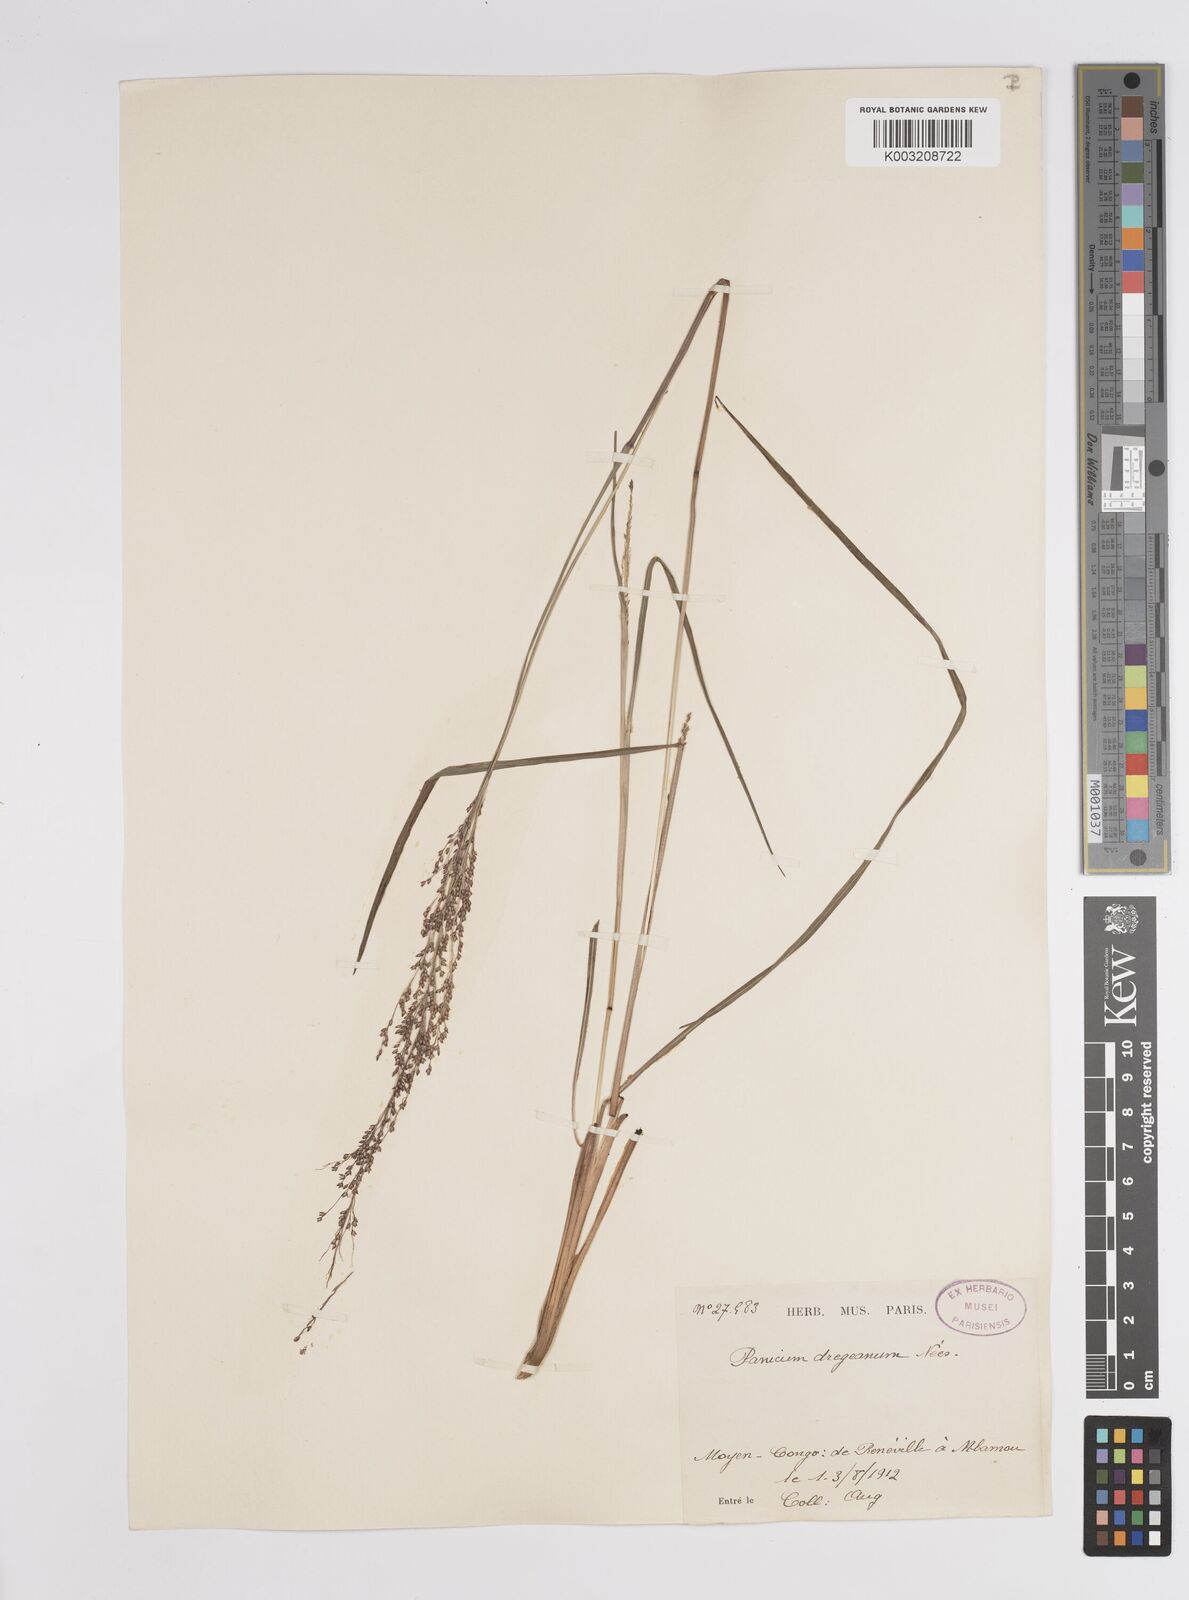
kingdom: Plantae
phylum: Tracheophyta
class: Liliopsida
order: Poales
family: Poaceae
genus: Panicum
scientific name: Panicum dregeanum
